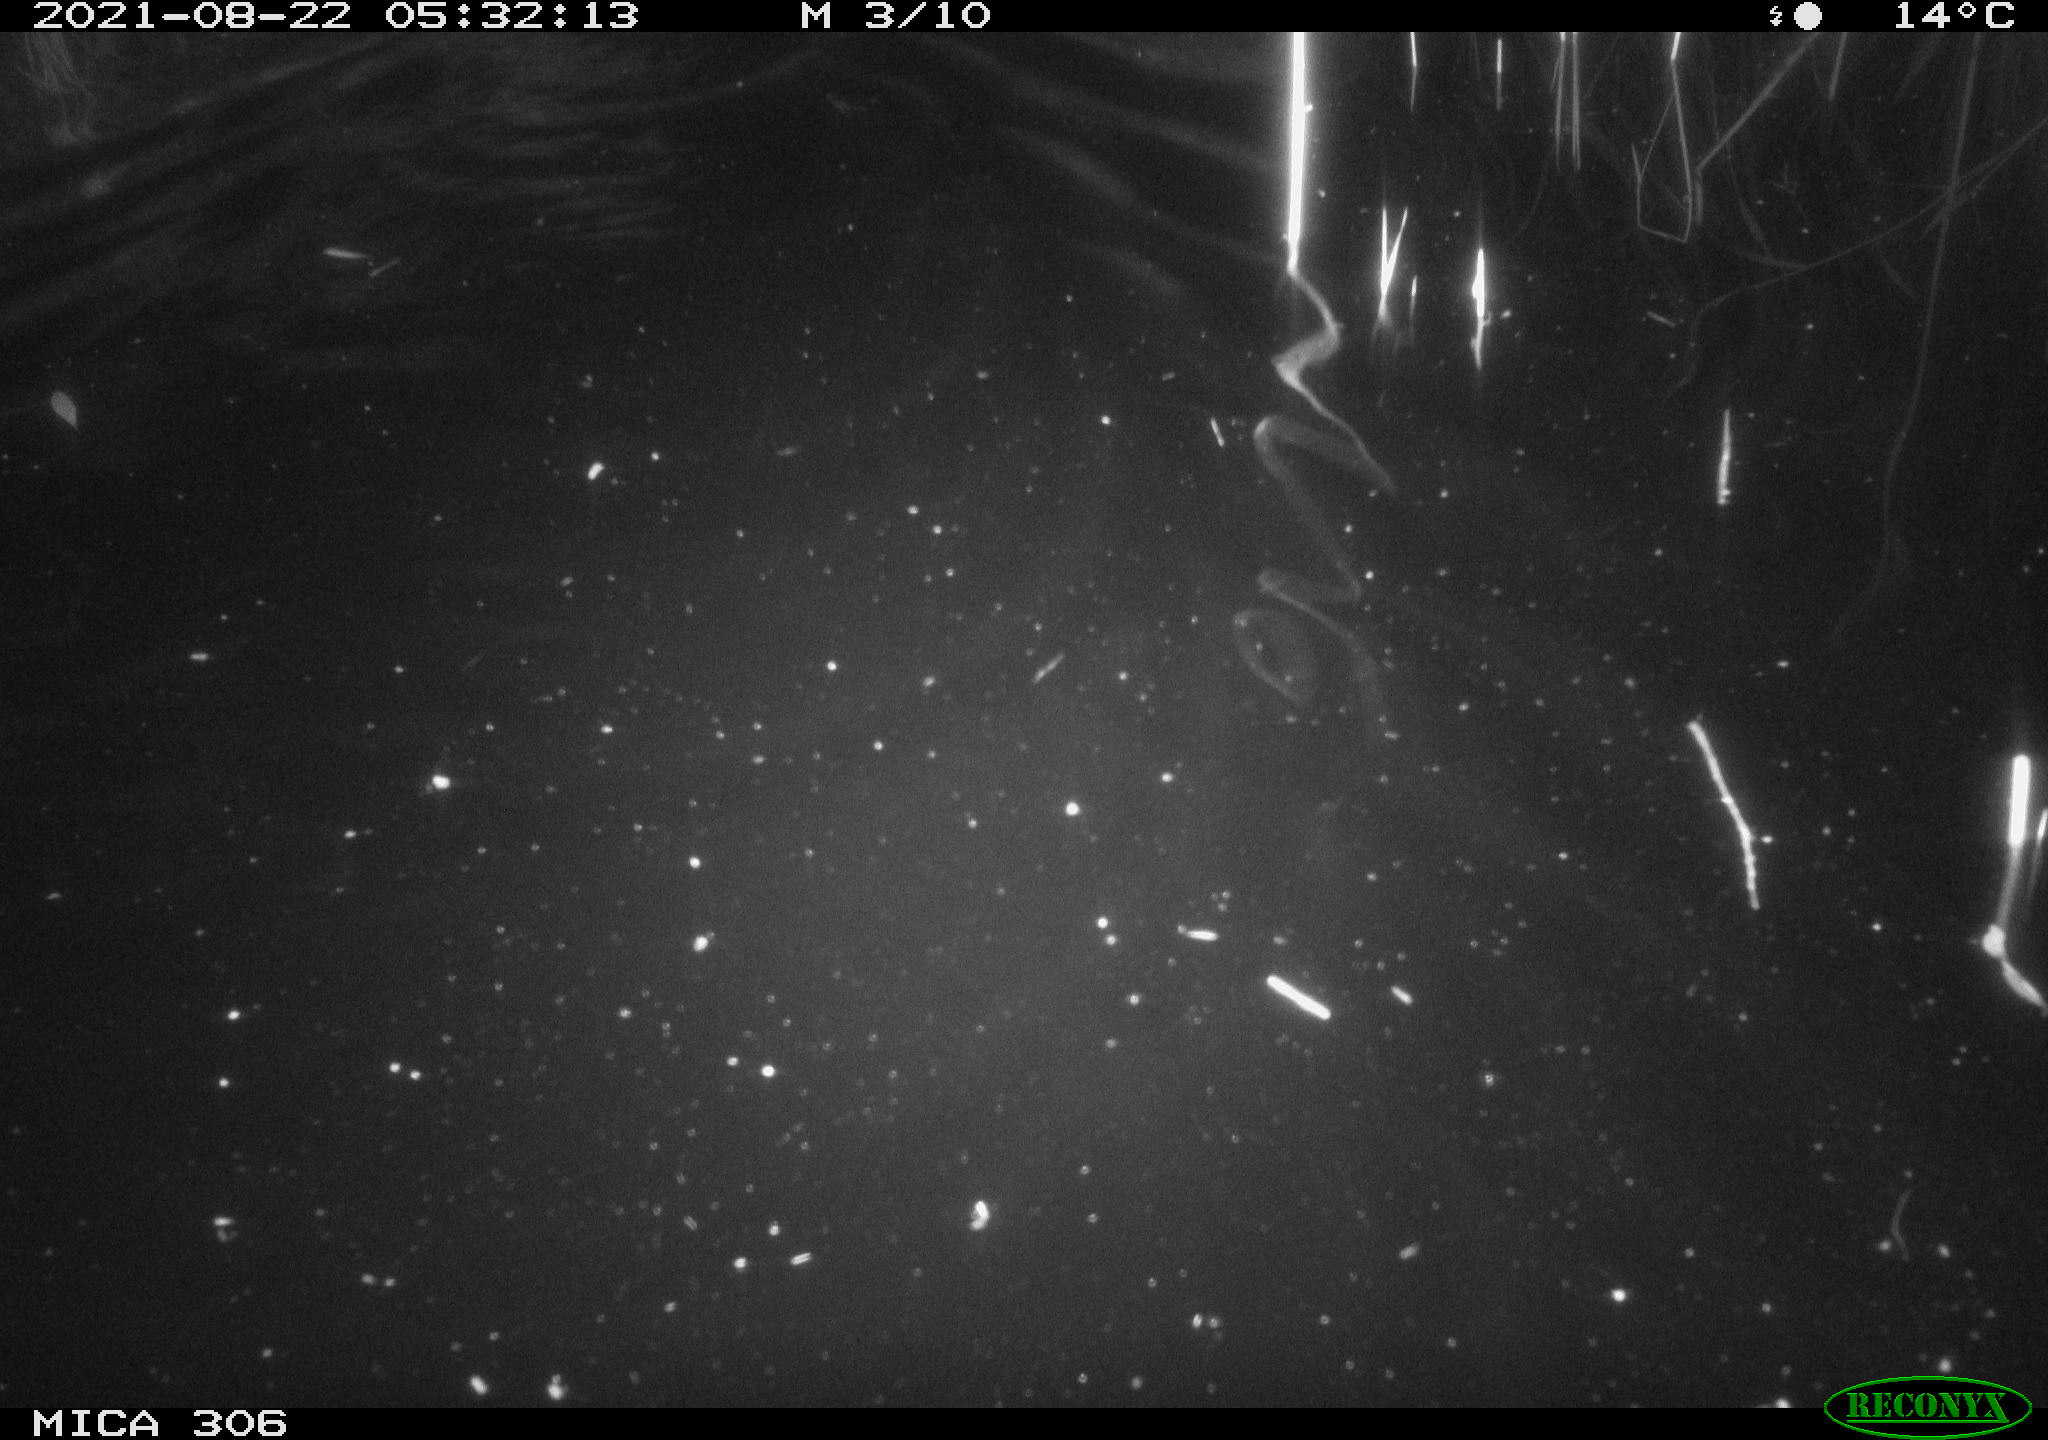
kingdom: Animalia
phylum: Chordata
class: Mammalia
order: Rodentia
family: Cricetidae
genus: Ondatra
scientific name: Ondatra zibethicus
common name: Muskrat
